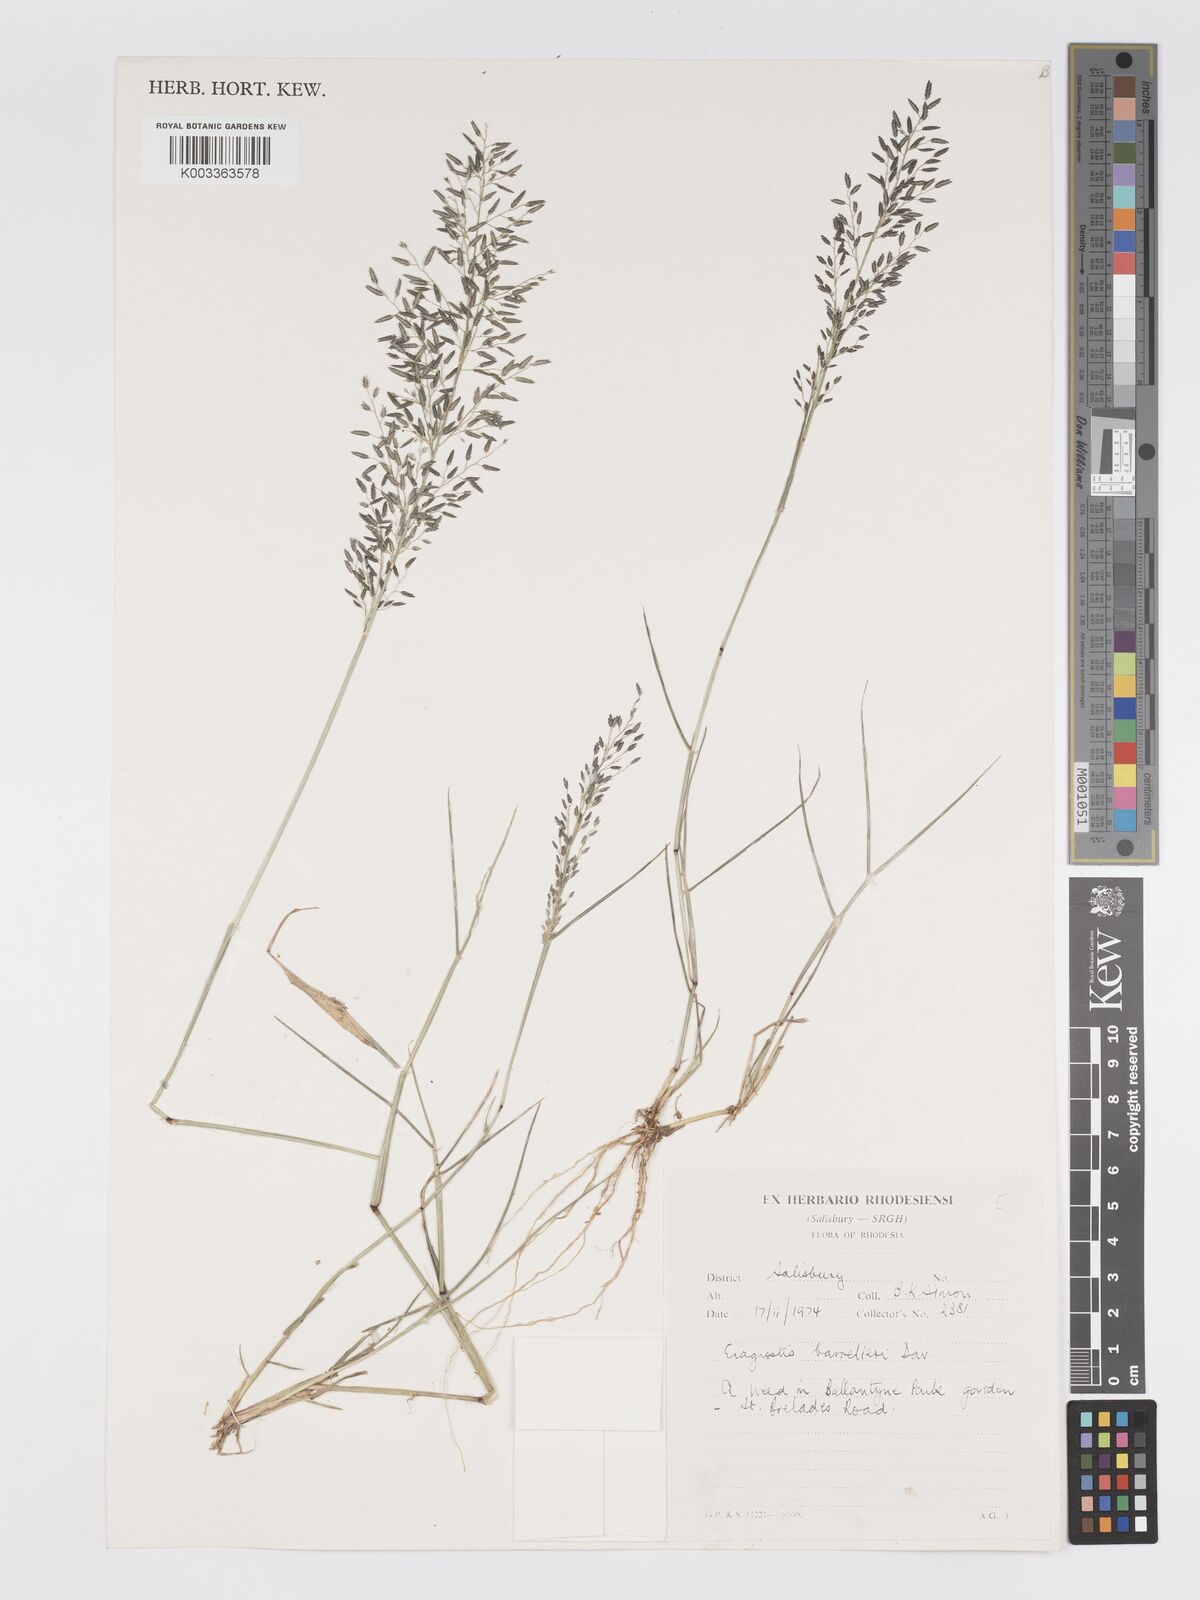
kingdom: Plantae
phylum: Tracheophyta
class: Liliopsida
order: Poales
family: Poaceae
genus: Eragrostis
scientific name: Eragrostis barrelieri
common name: Mediterranean lovegrass
